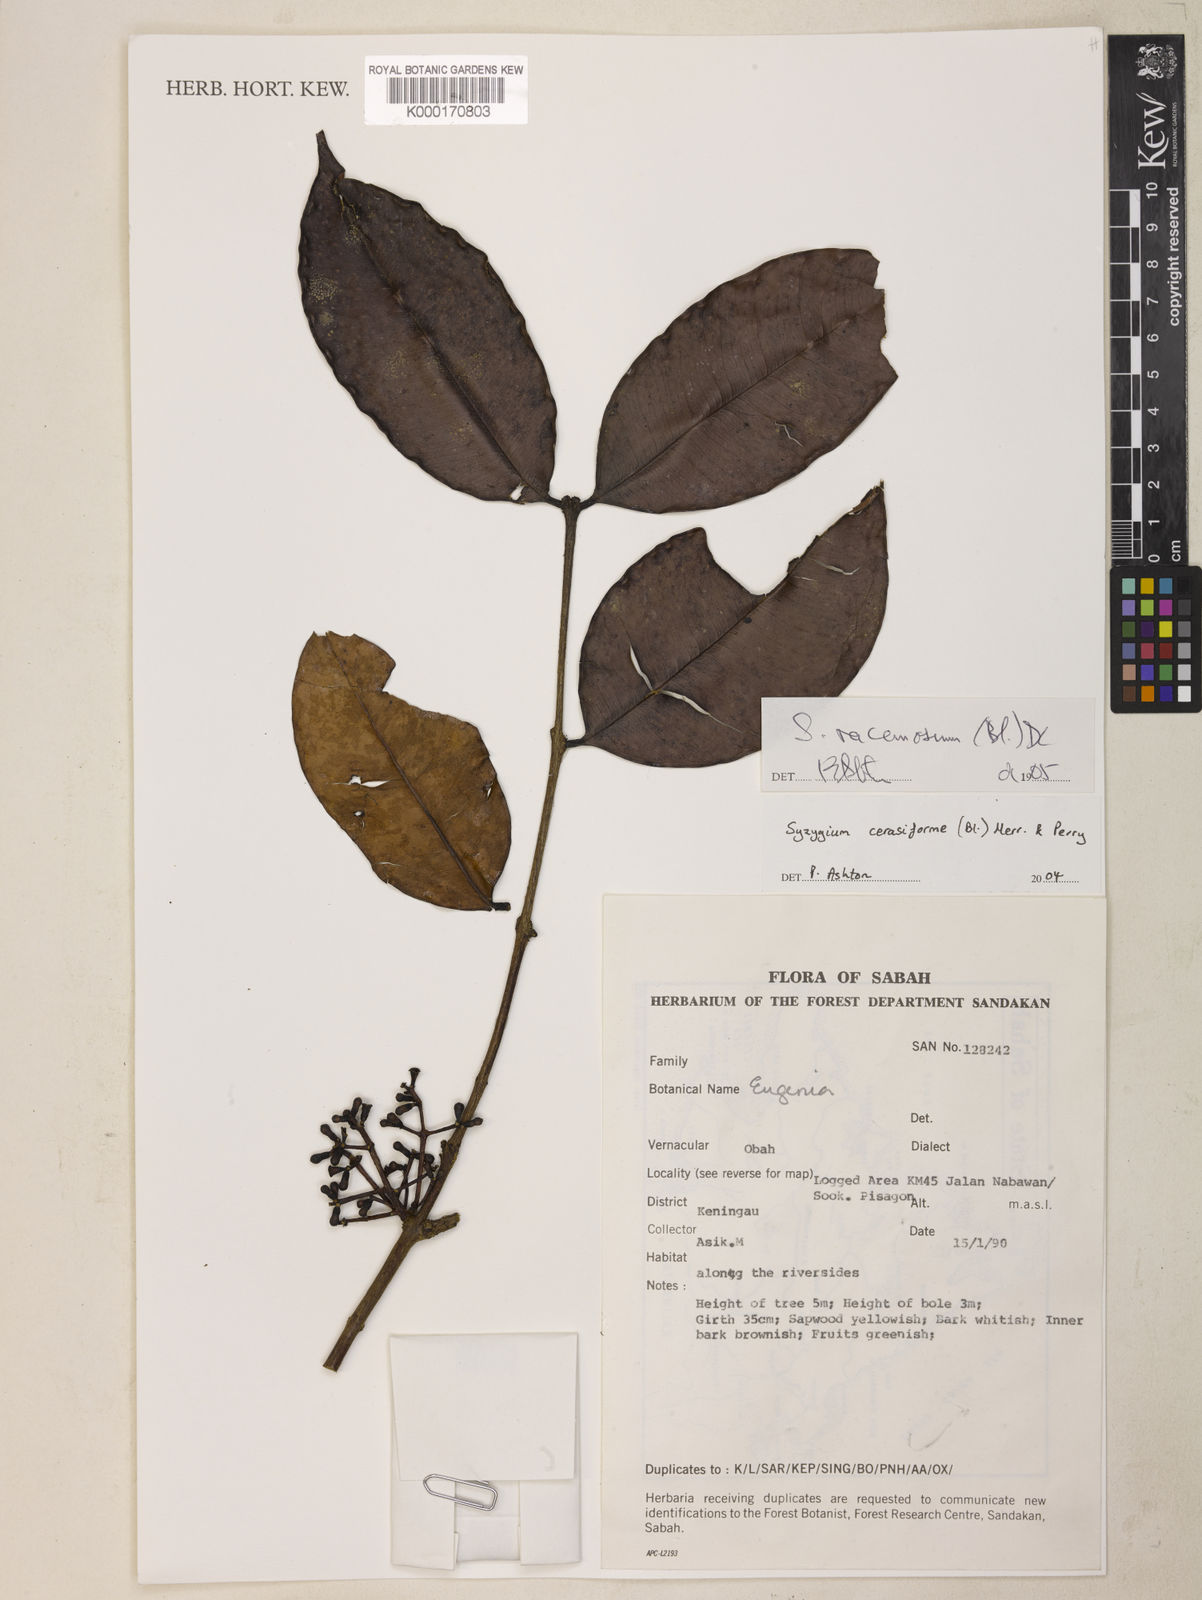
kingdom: Plantae
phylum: Tracheophyta
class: Magnoliopsida
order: Myrtales
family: Myrtaceae
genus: Syzygium
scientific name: Syzygium racemosum
